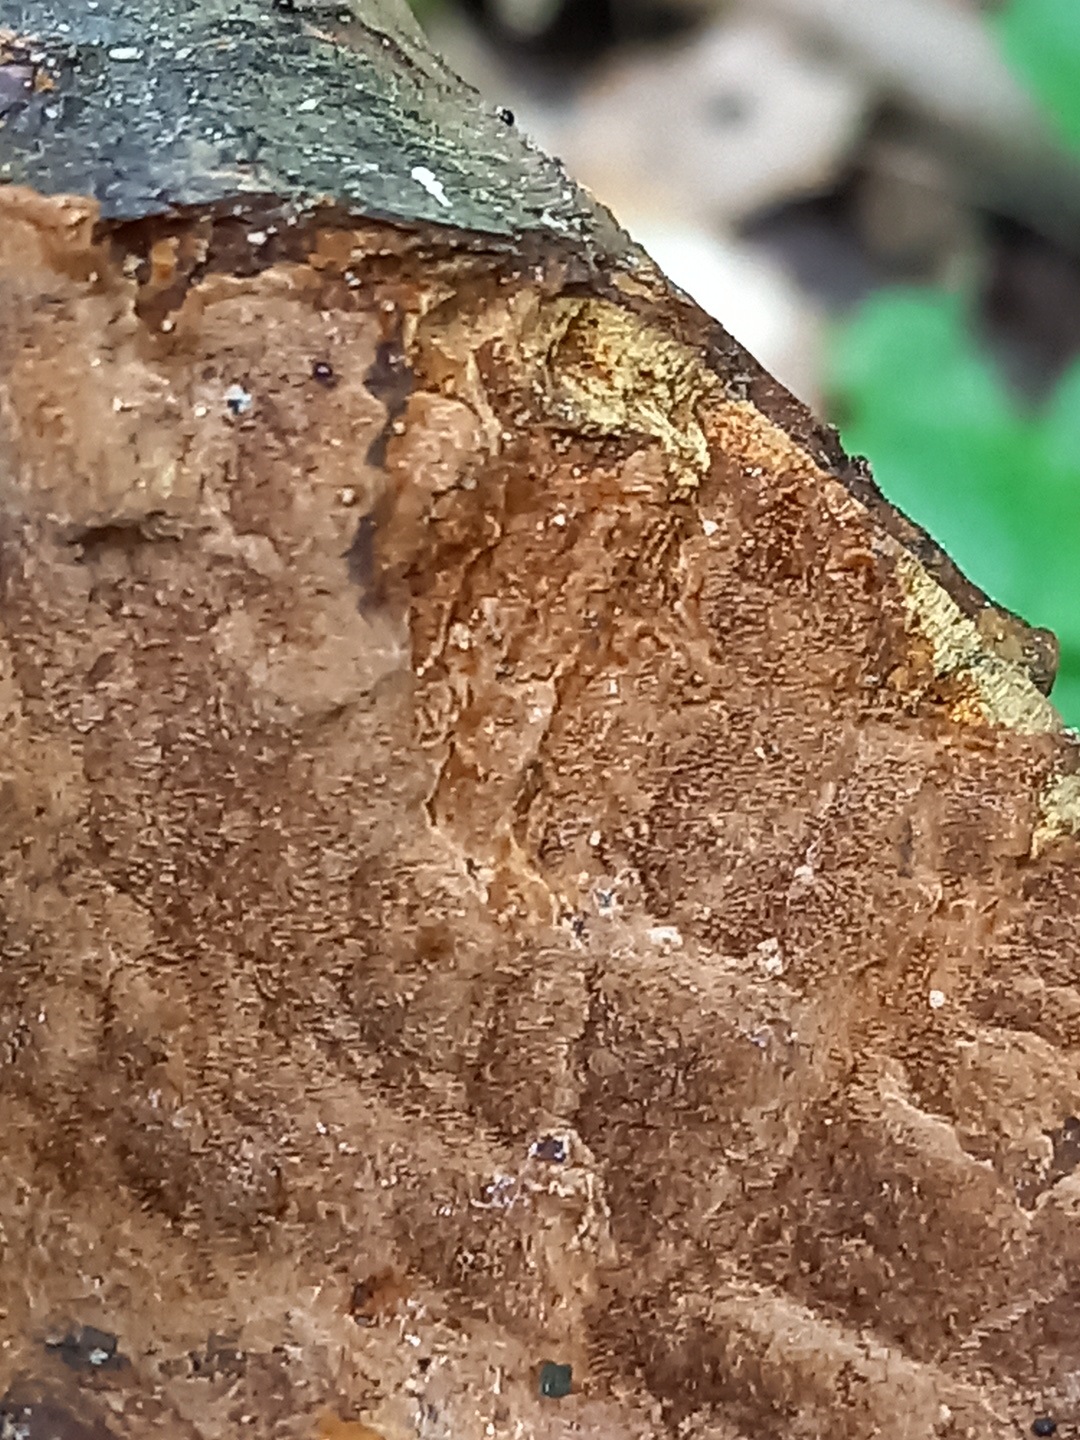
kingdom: Fungi
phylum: Basidiomycota
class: Agaricomycetes
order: Hymenochaetales
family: Hymenochaetaceae
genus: Fuscoporia
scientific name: Fuscoporia ferrea
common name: skorpe-ildporesvamp
